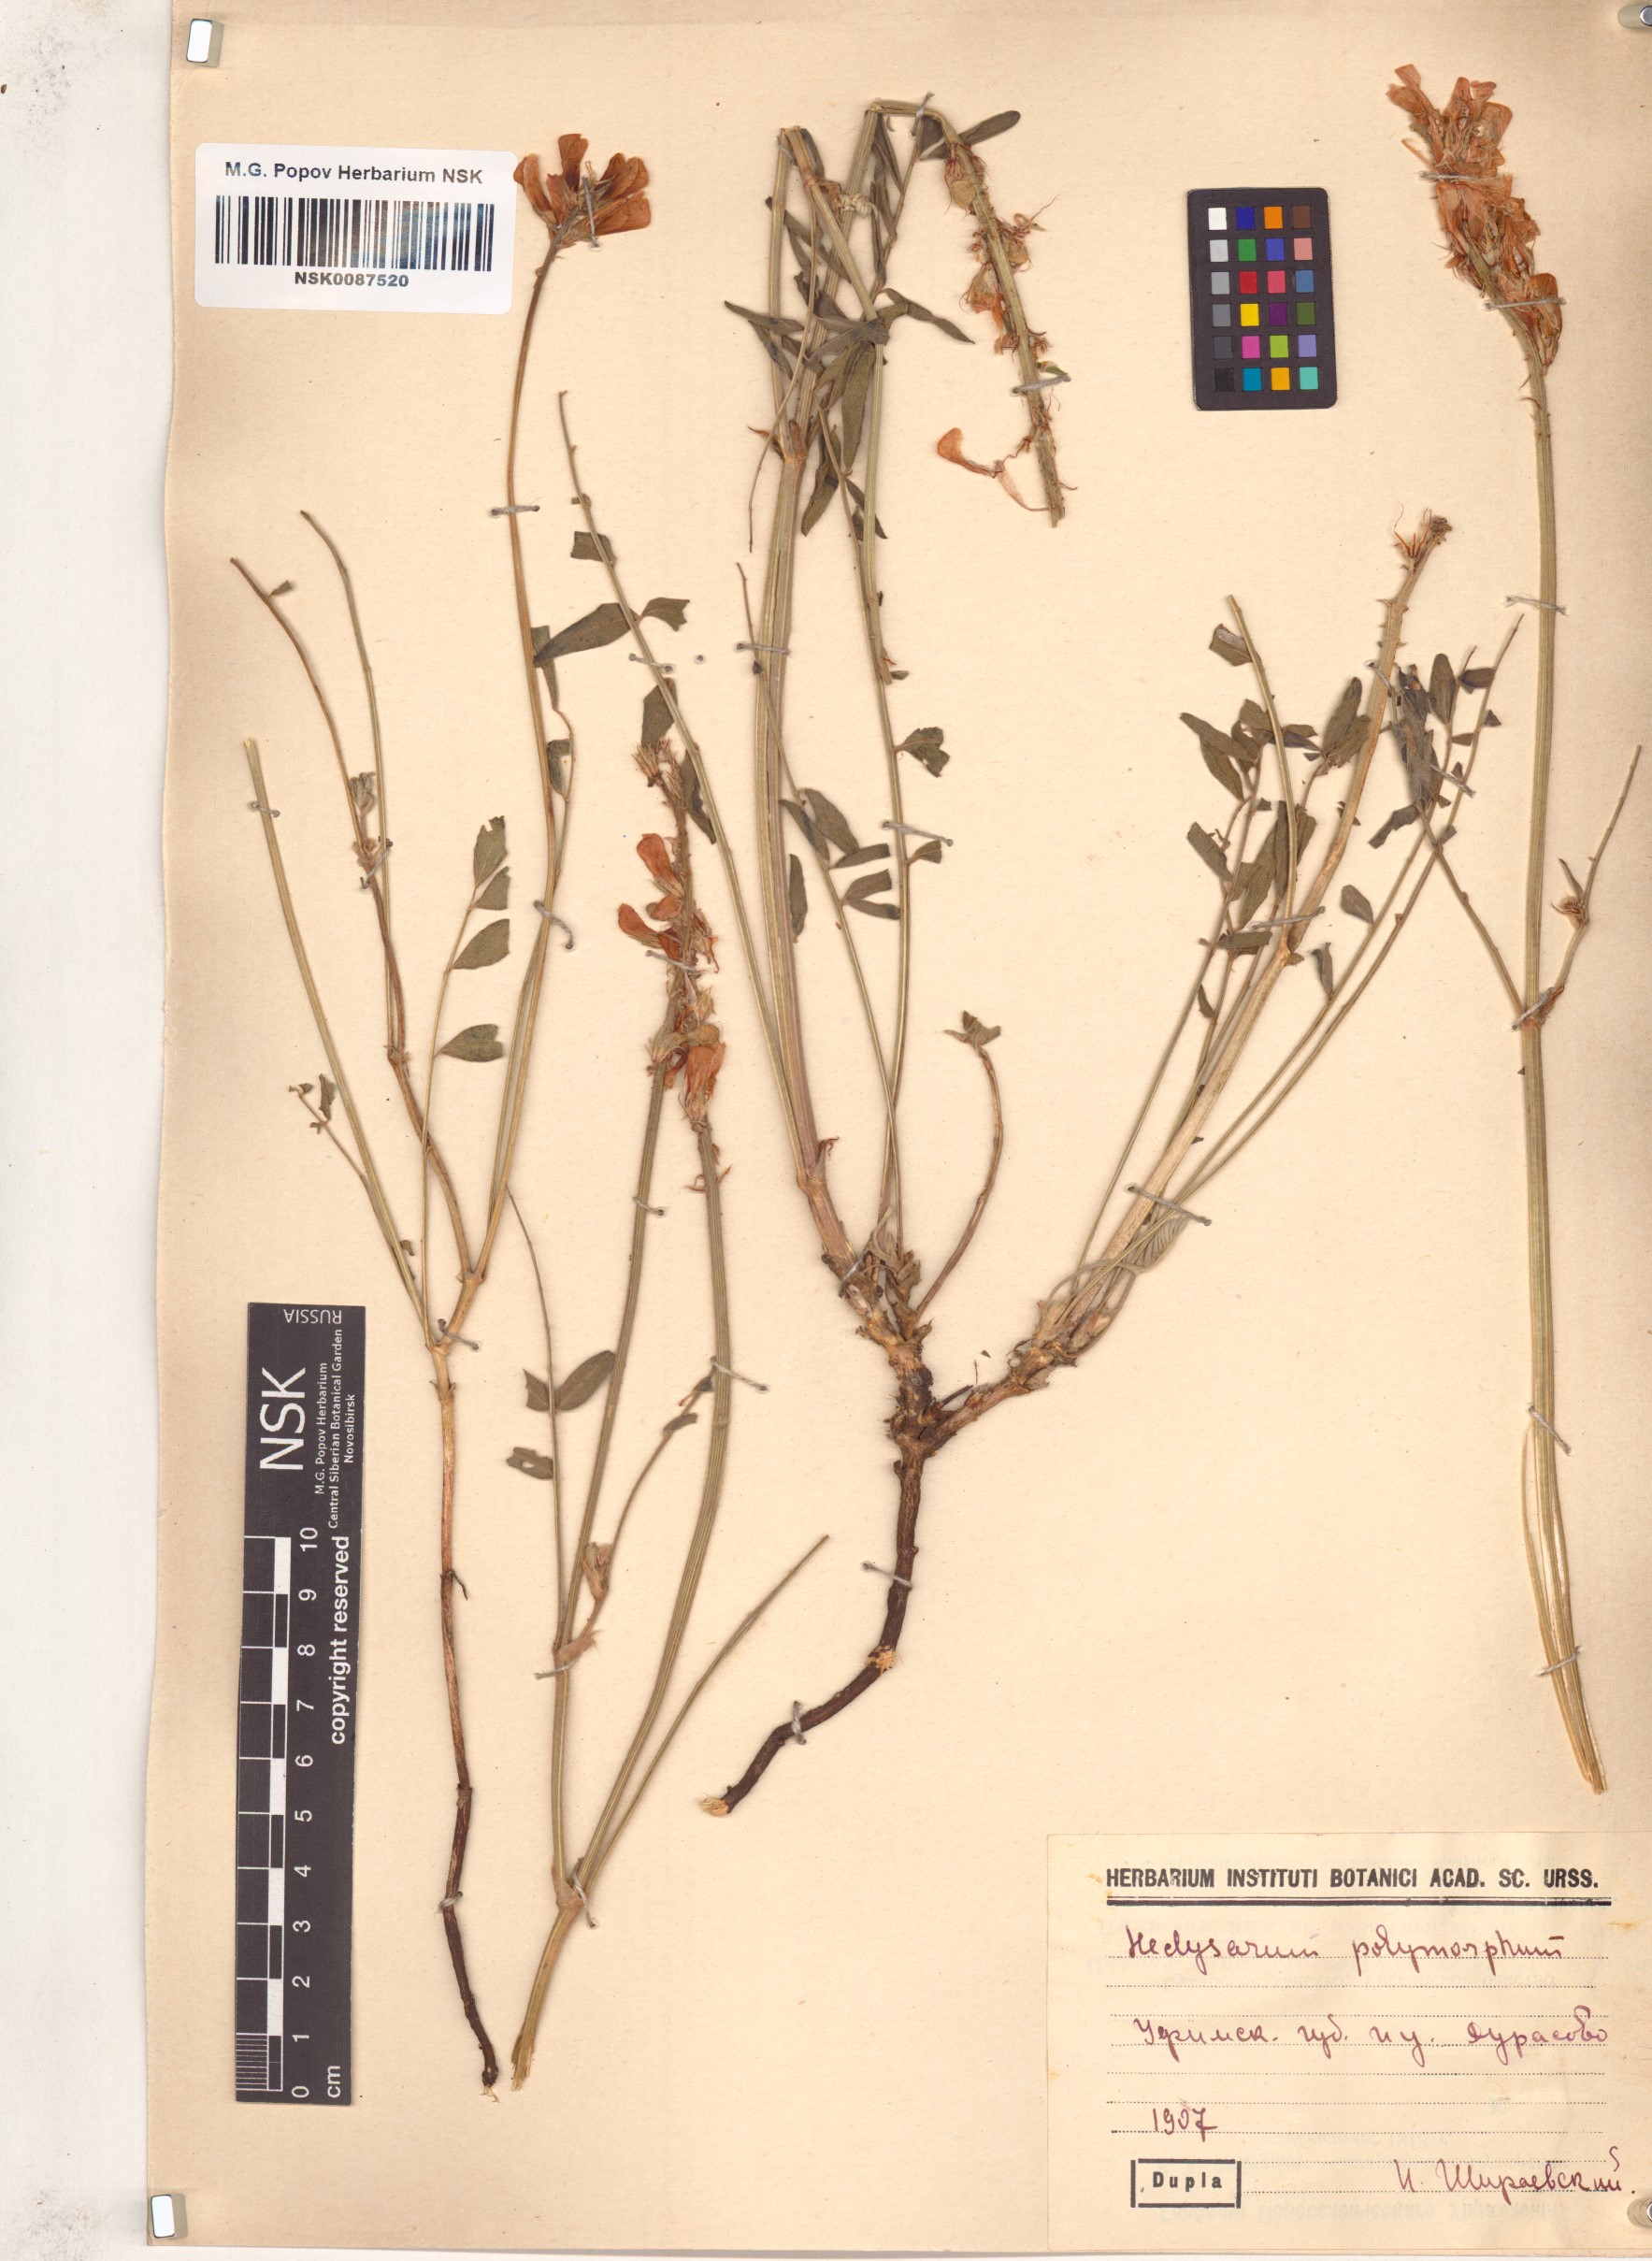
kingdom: Plantae
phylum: Tracheophyta
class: Magnoliopsida
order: Fabales
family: Fabaceae
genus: Hedysarum
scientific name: Hedysarum gmelinii
